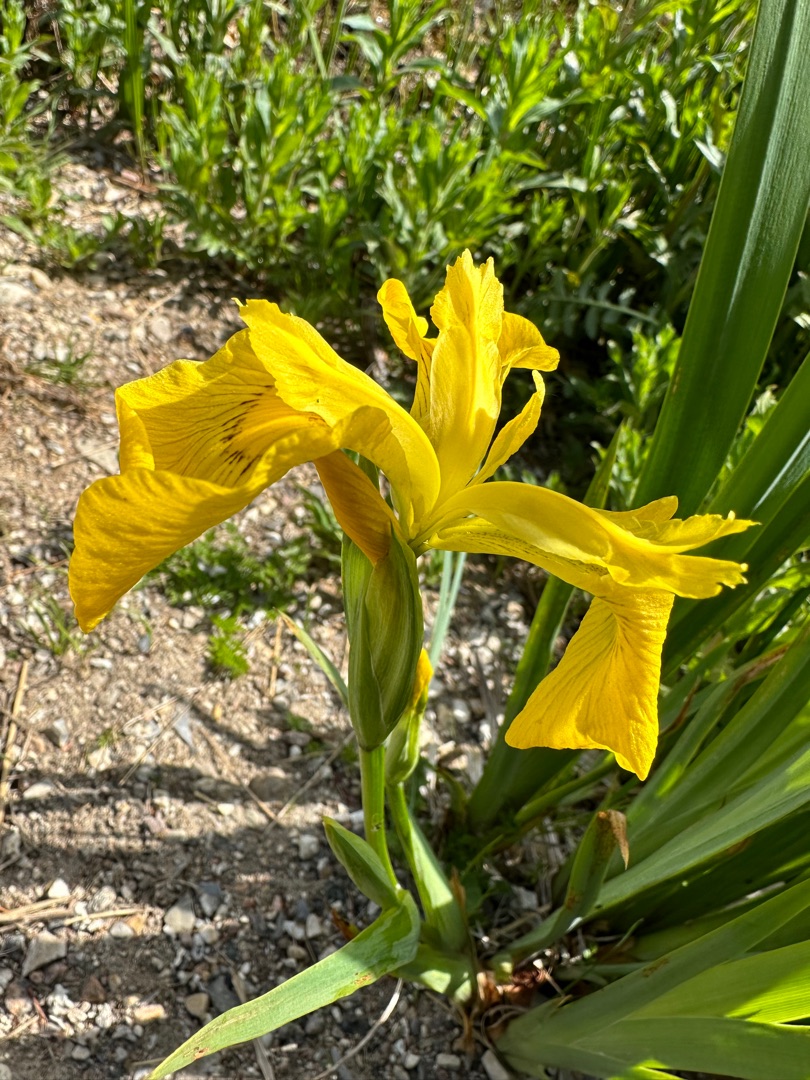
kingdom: Plantae
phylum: Tracheophyta
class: Liliopsida
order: Asparagales
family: Iridaceae
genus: Iris
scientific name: Iris pseudacorus
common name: Gul iris
